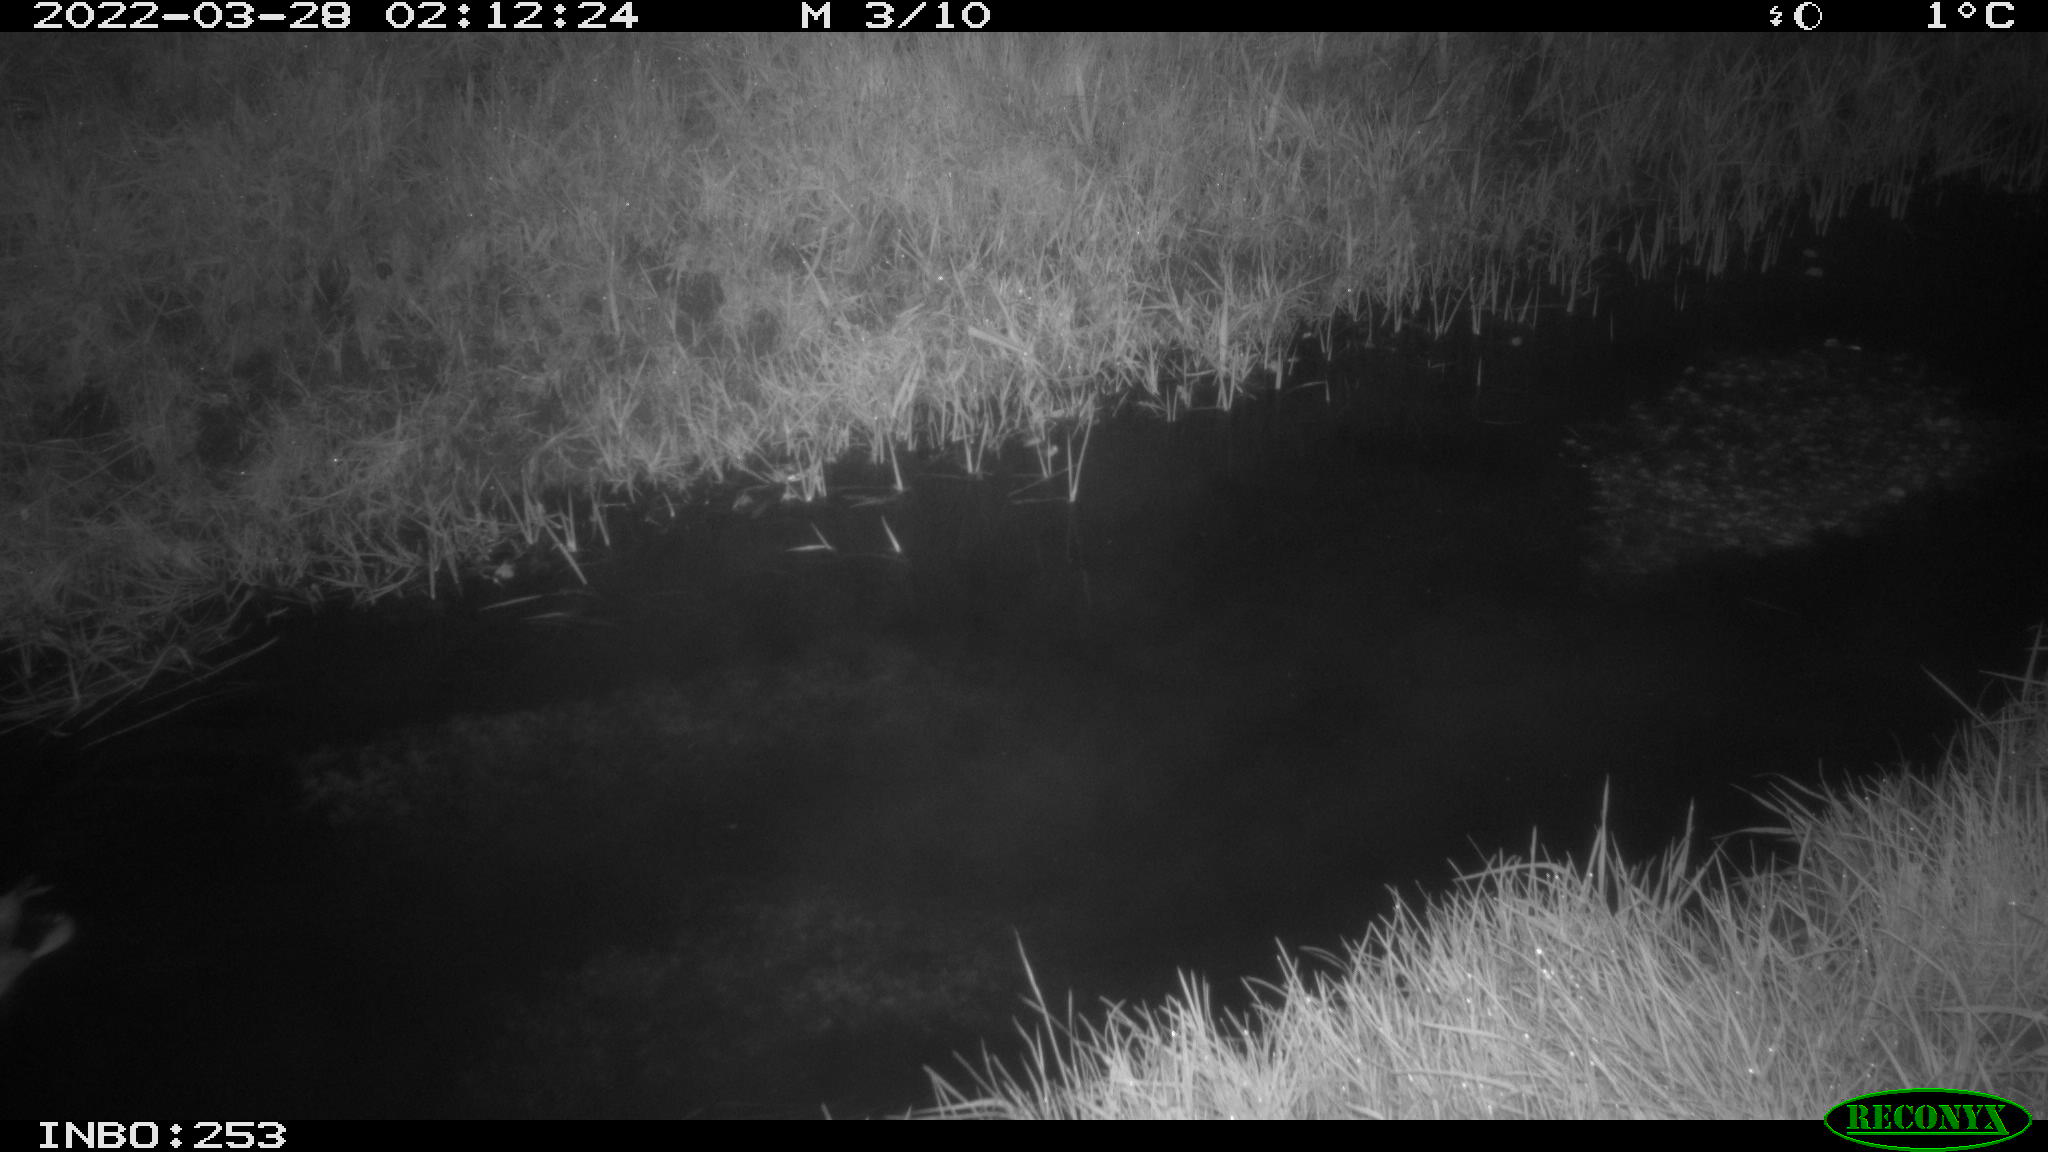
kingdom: Animalia
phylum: Chordata
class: Aves
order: Anseriformes
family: Anatidae
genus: Anas
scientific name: Anas platyrhynchos
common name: Mallard
